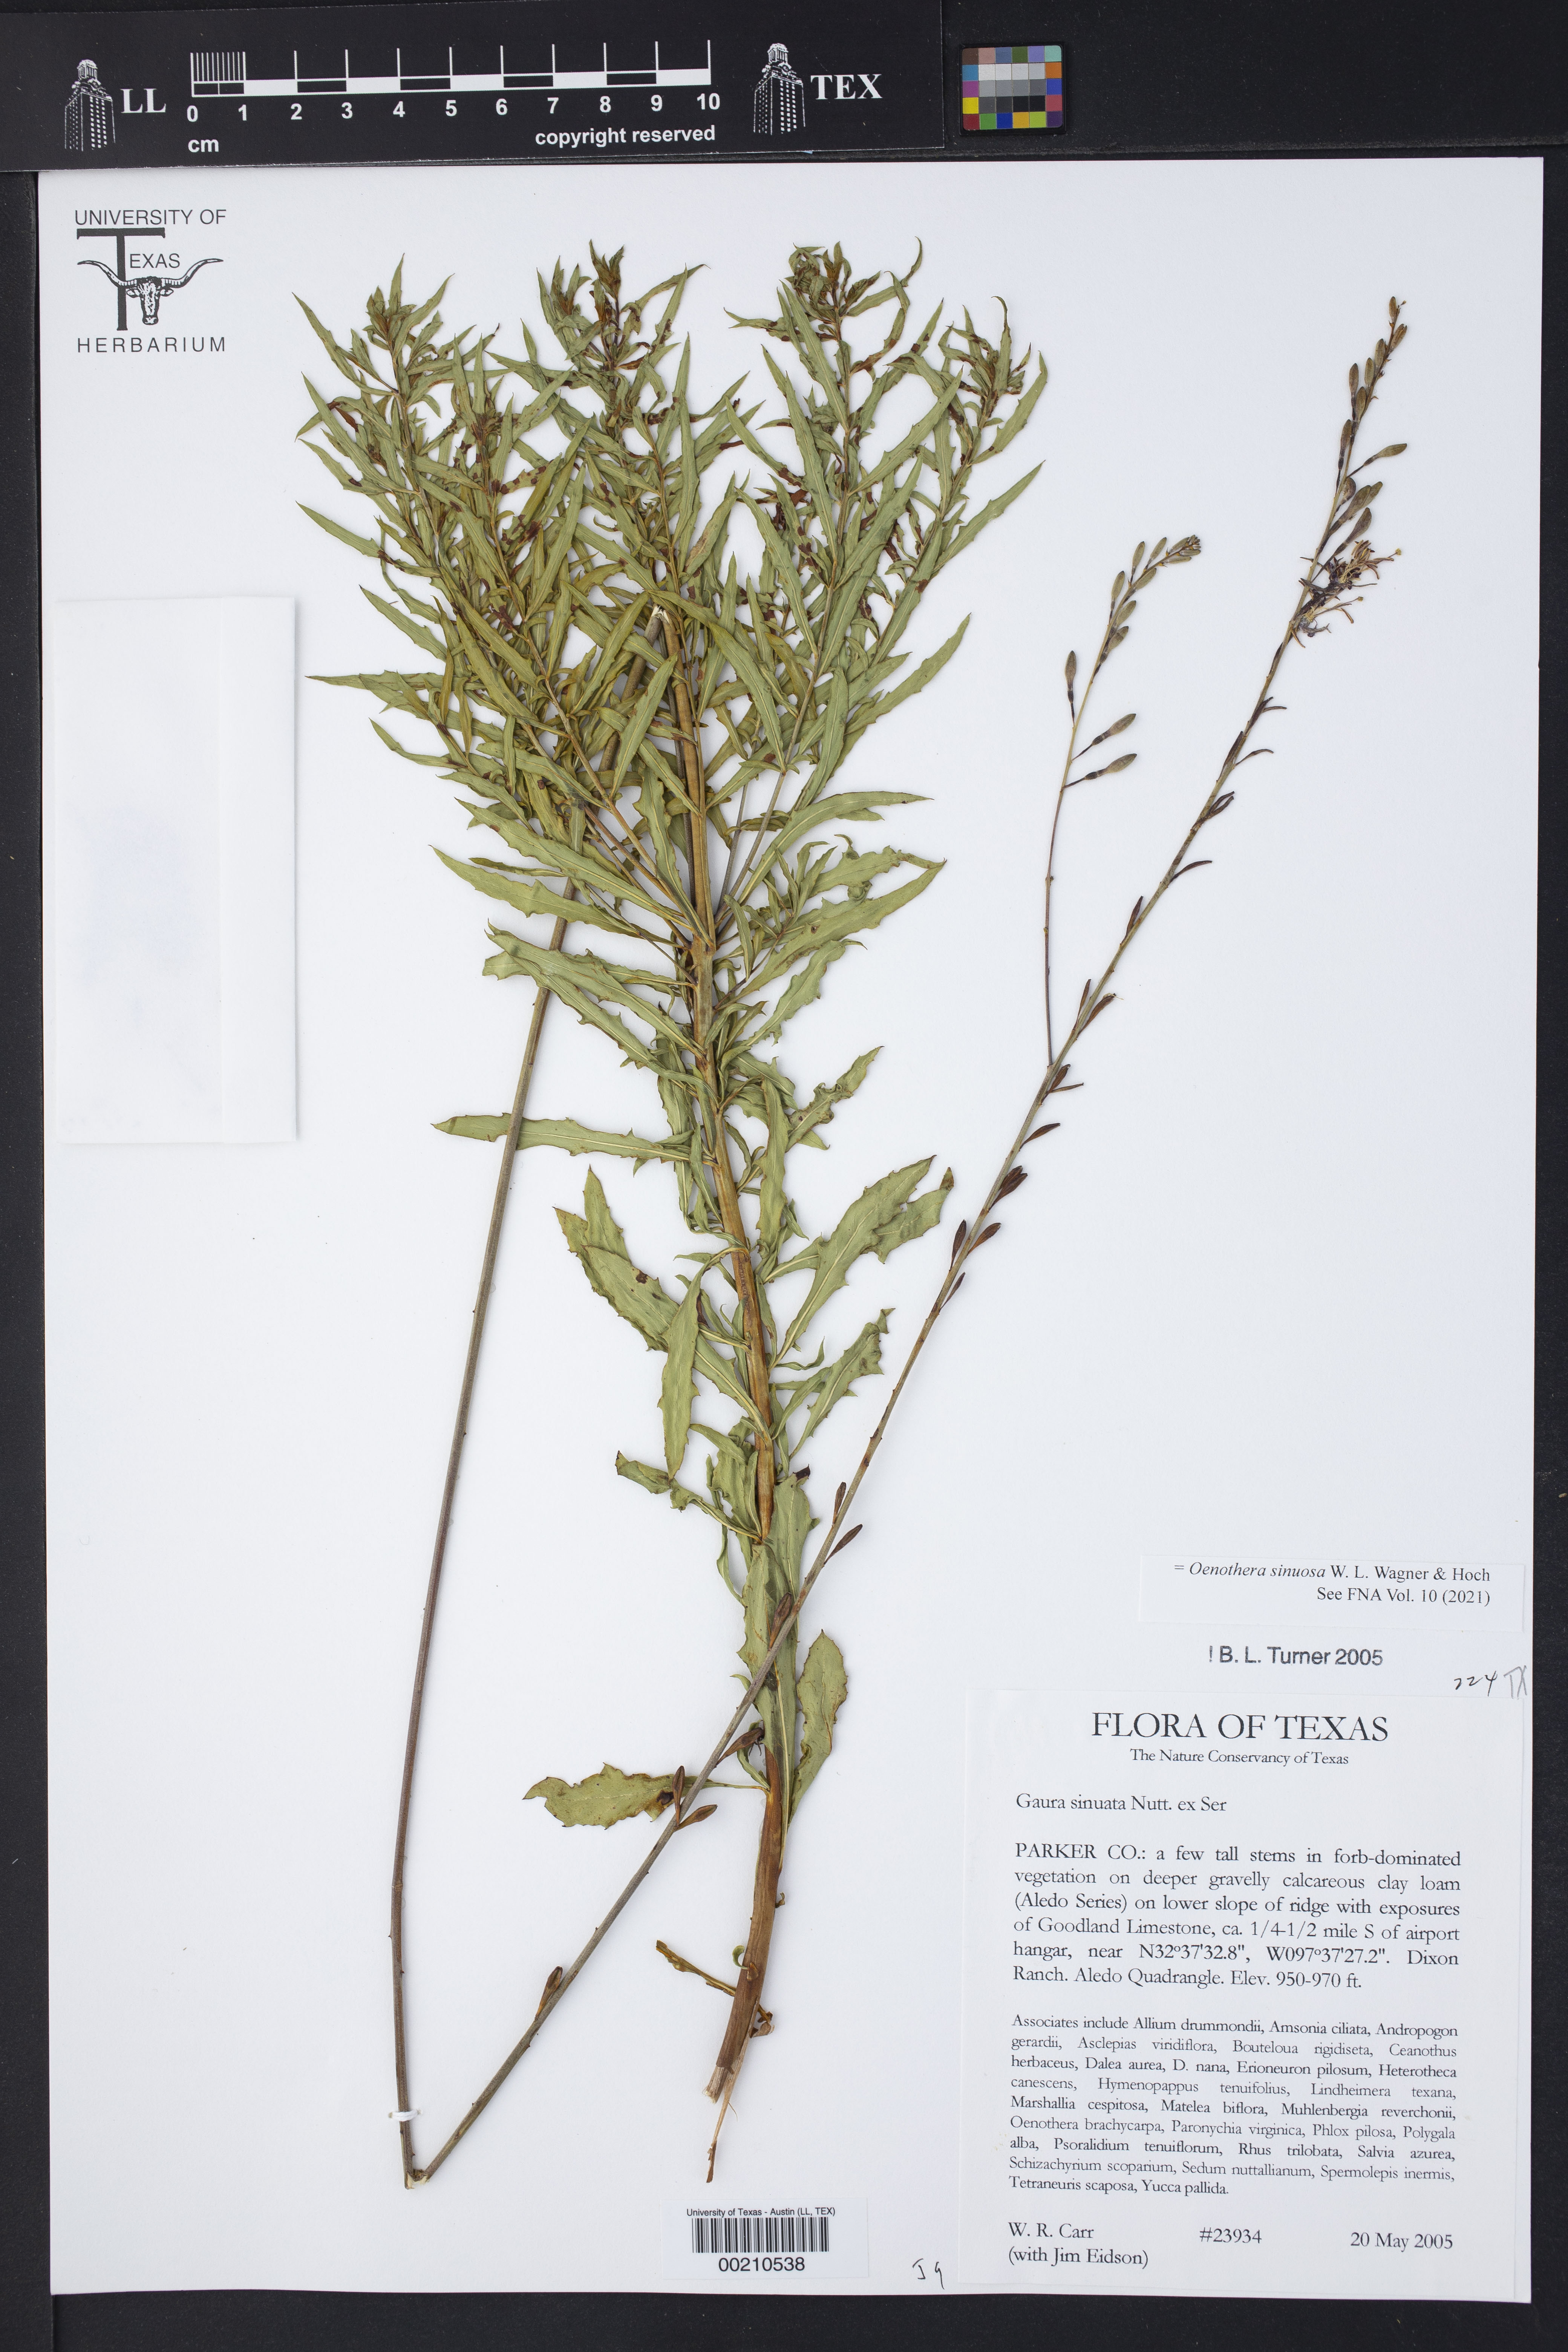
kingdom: Plantae
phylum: Tracheophyta
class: Magnoliopsida
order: Myrtales
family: Onagraceae
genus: Oenothera
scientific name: Oenothera sinuosa
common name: Wavyleaf beeblossom
